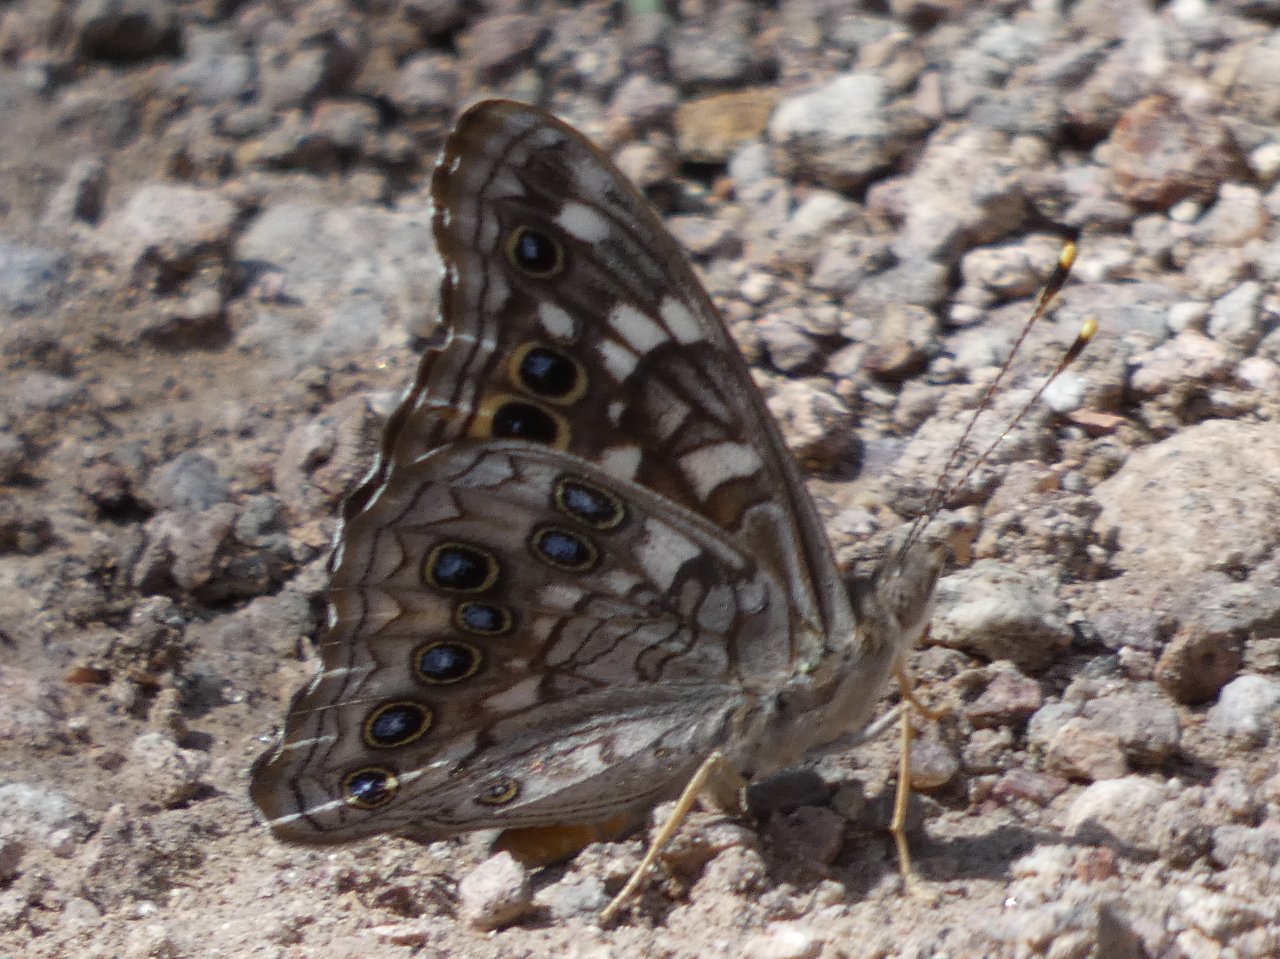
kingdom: Animalia
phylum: Arthropoda
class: Insecta
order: Lepidoptera
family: Nymphalidae
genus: Asterocampa
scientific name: Asterocampa leilia
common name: Empress Leilia
